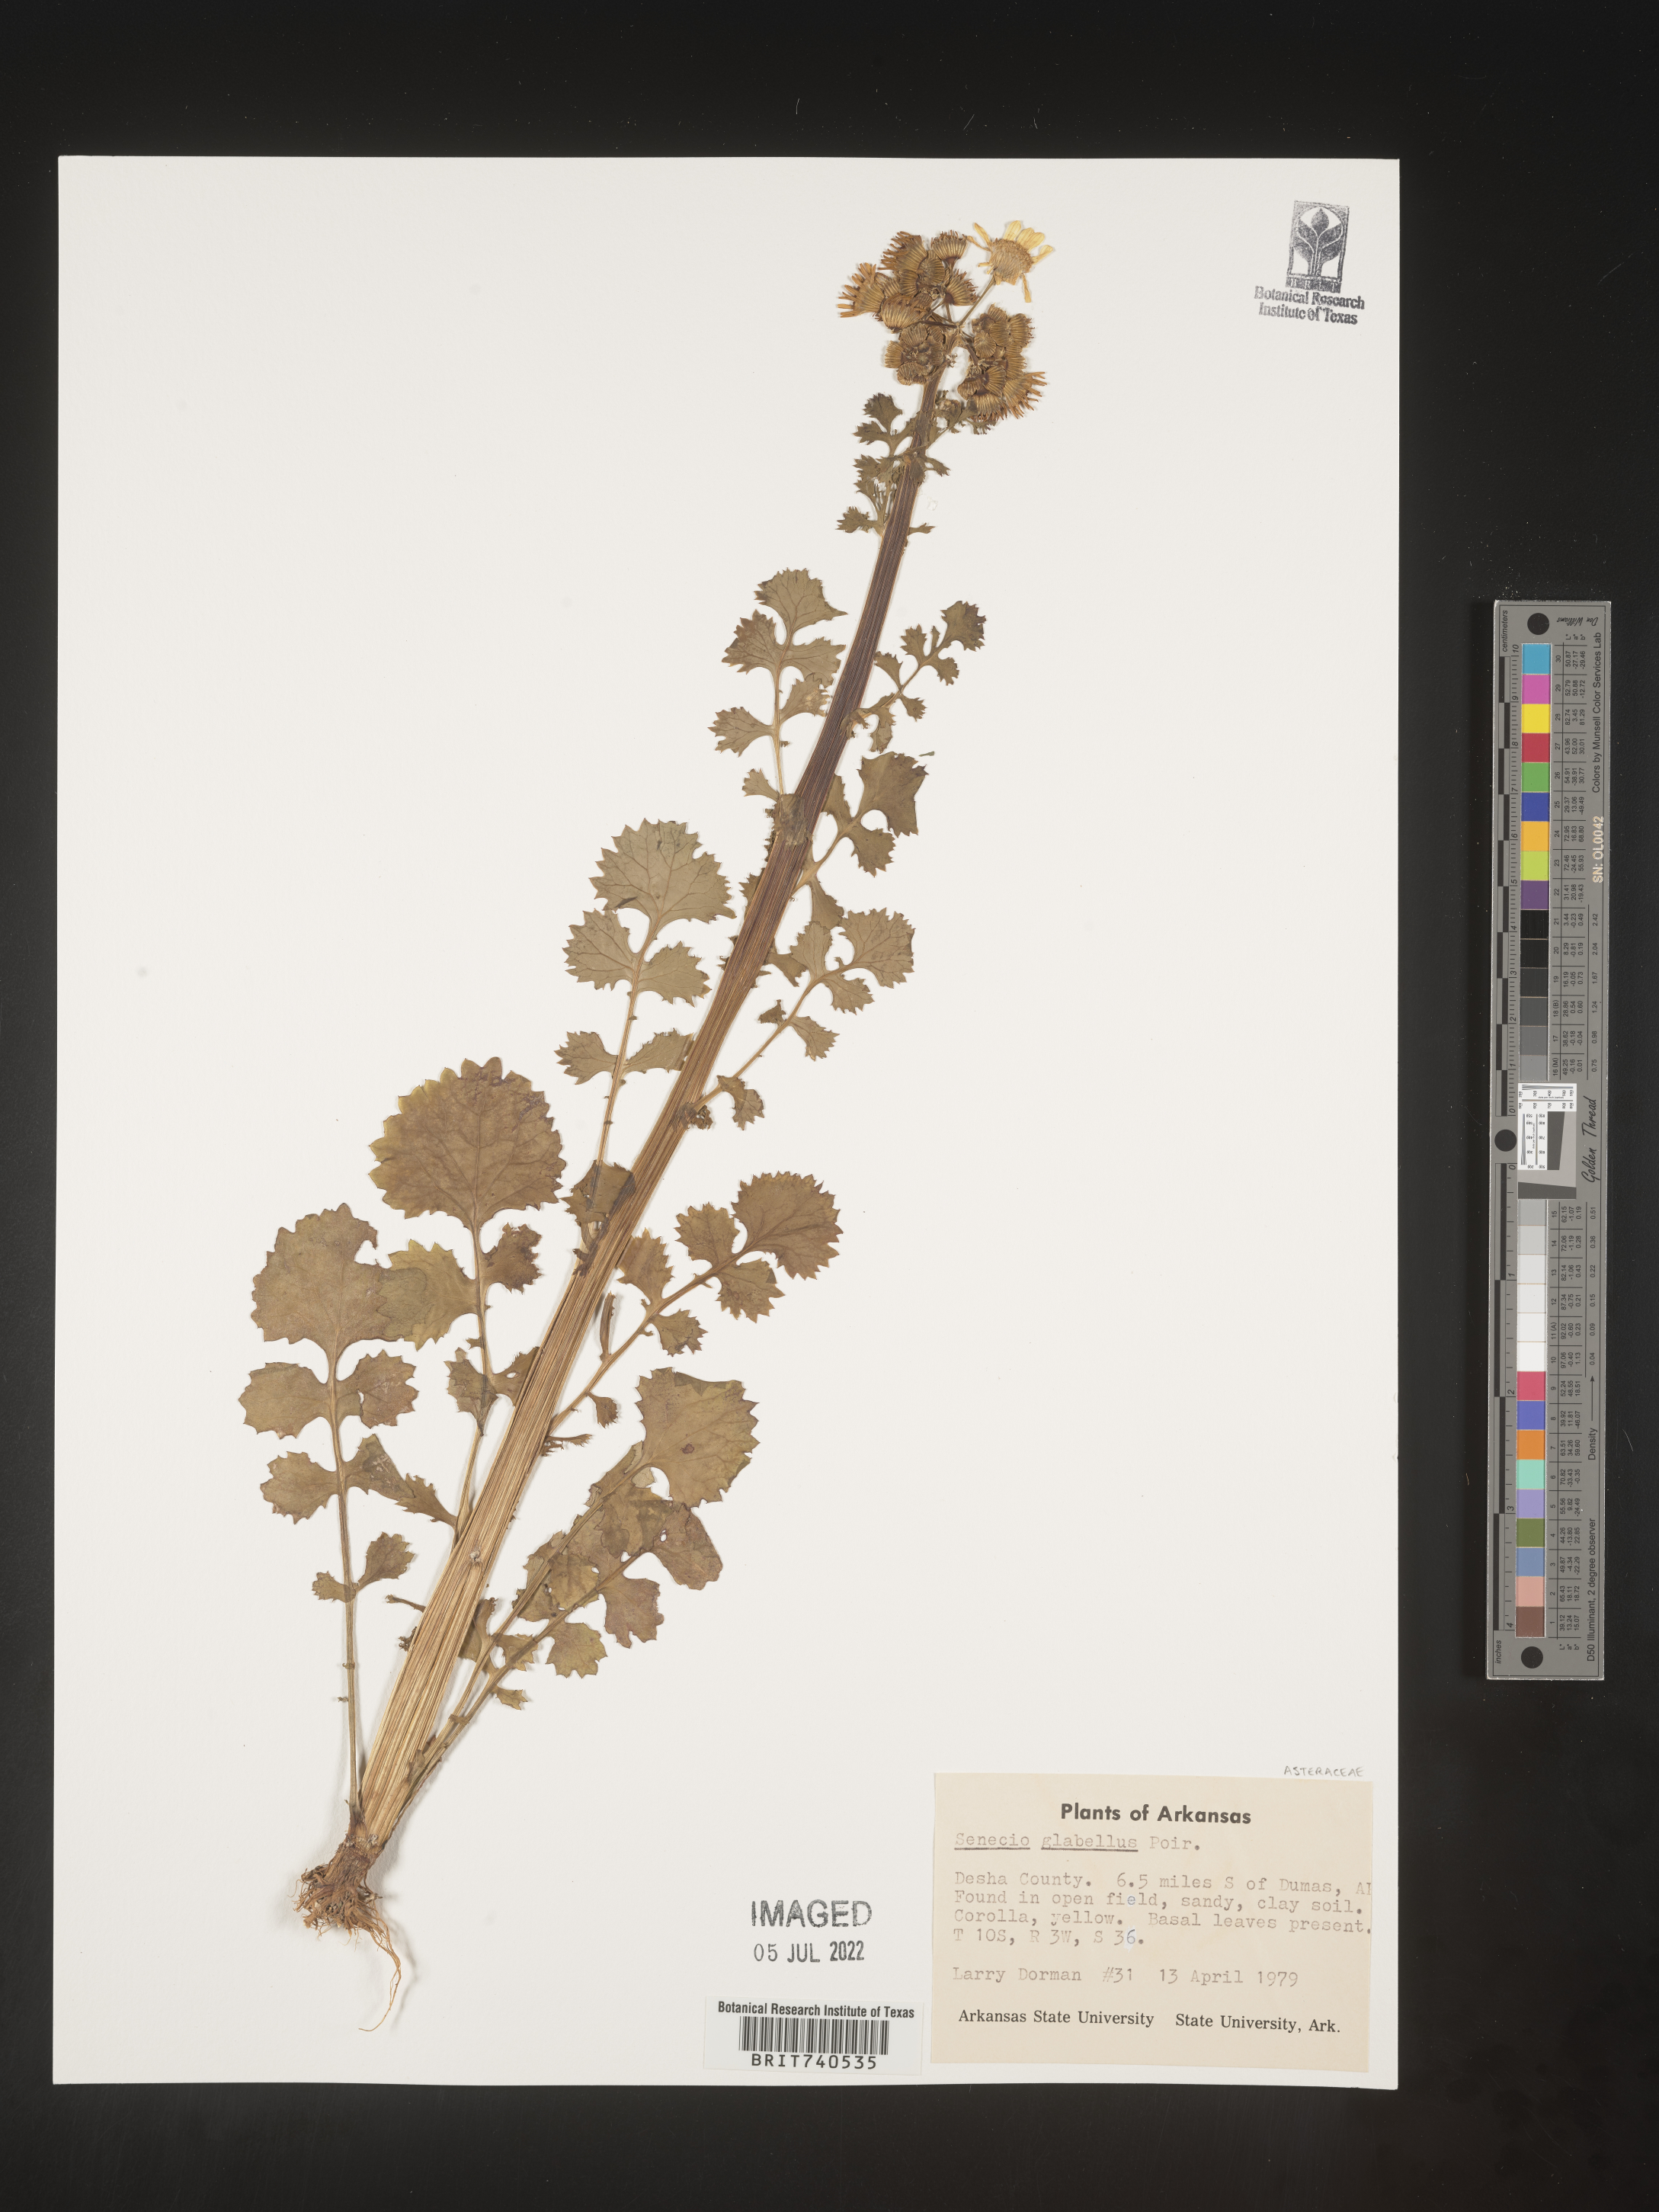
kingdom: Plantae
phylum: Tracheophyta
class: Magnoliopsida
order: Asterales
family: Asteraceae
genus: Tephroseris
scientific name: Tephroseris praticola
